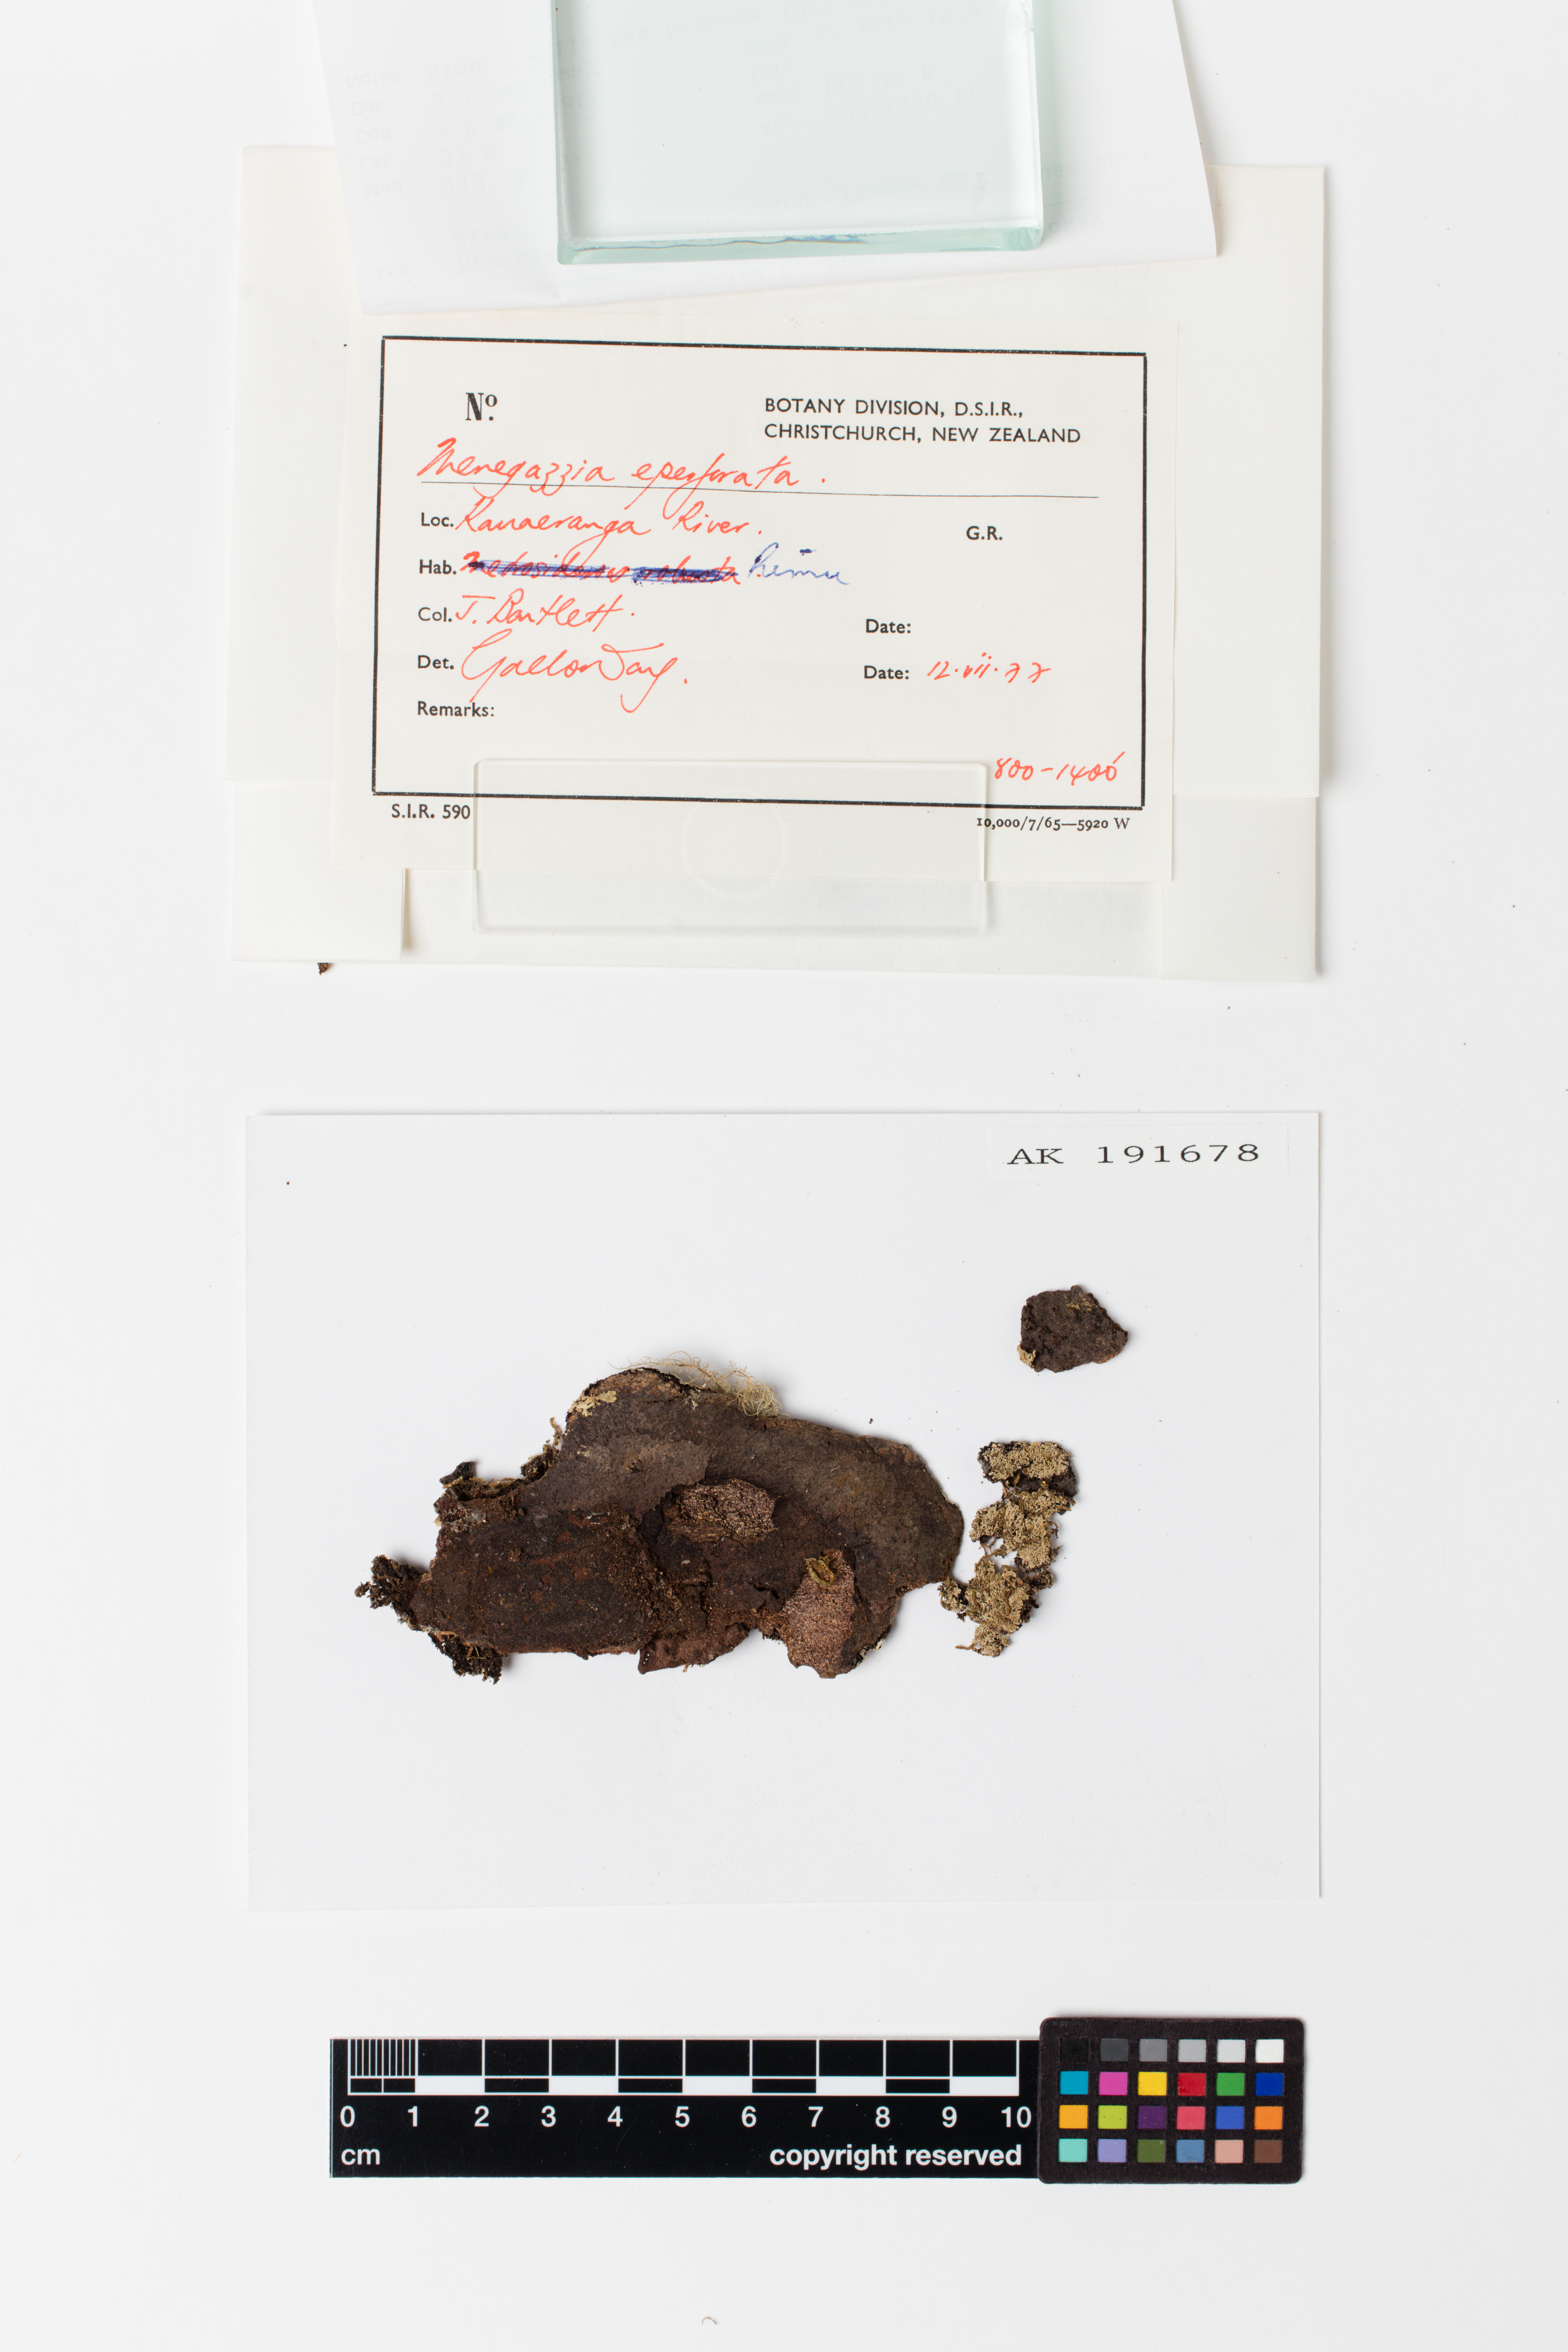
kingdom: Fungi
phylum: Ascomycota
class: Lecanoromycetes
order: Lecanorales
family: Parmeliaceae
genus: Menegazzia
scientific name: Menegazzia eperforata
